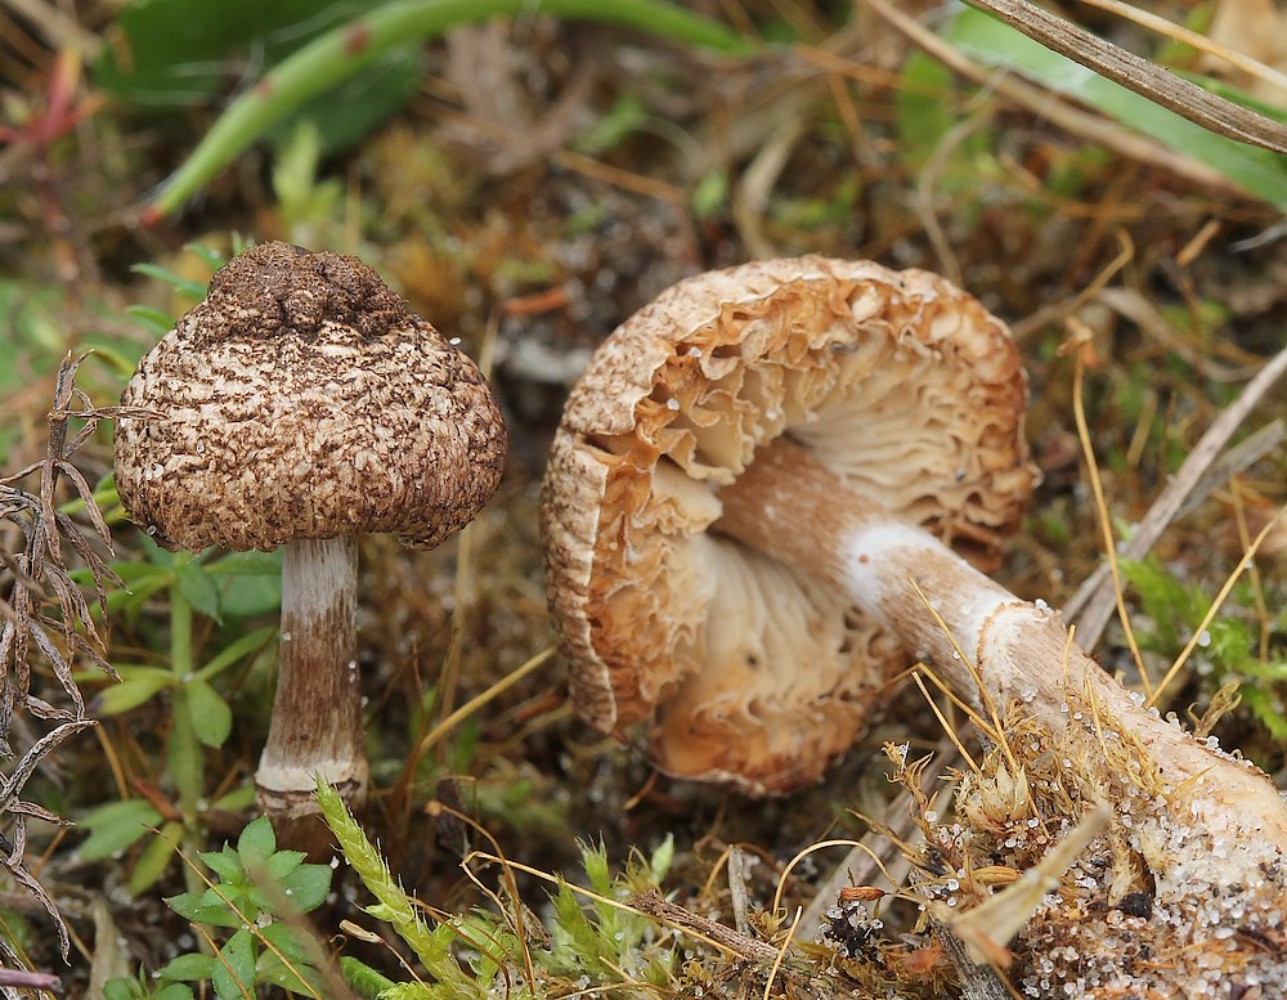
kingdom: Fungi
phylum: Basidiomycota
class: Agaricomycetes
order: Agaricales
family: Agaricaceae
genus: Lepiota
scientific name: Lepiota pseudolilacea
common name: gråbrun parasolhat
